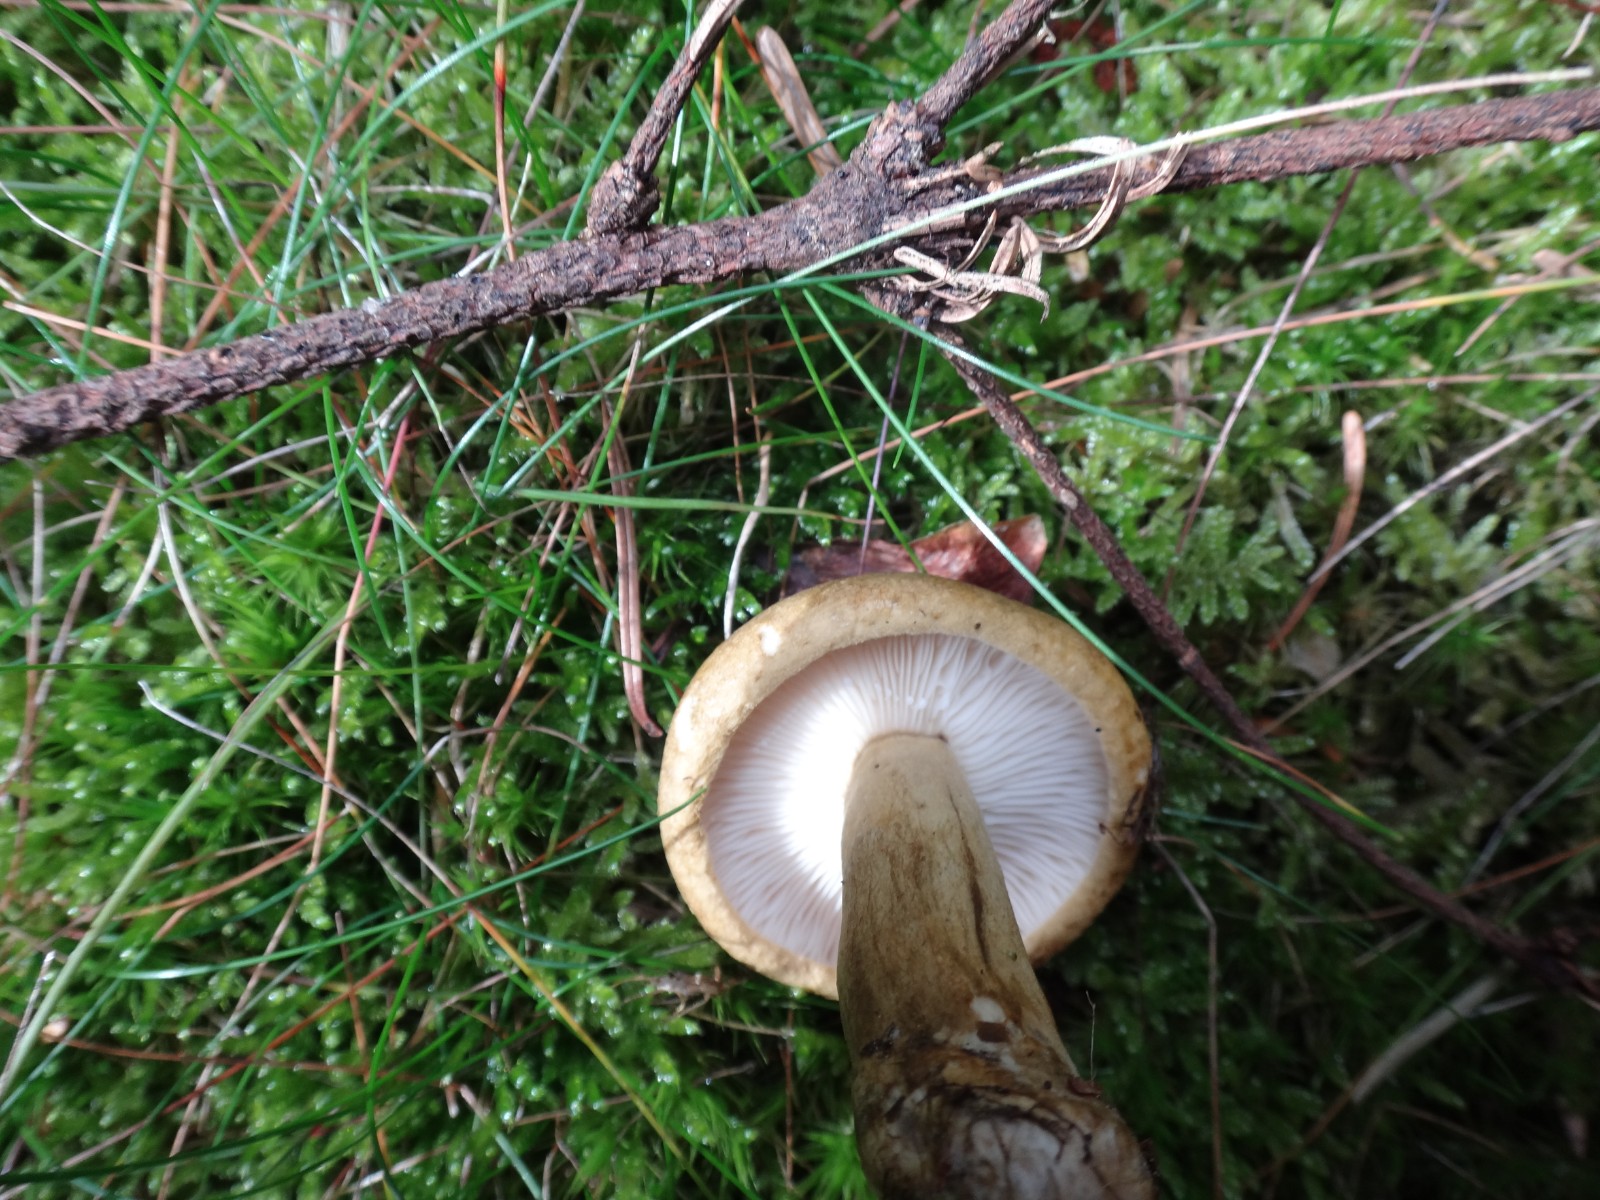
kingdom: Fungi
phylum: Basidiomycota
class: Agaricomycetes
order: Russulales
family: Russulaceae
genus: Lactarius
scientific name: Lactarius necator
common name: manddraber-mælkehat
